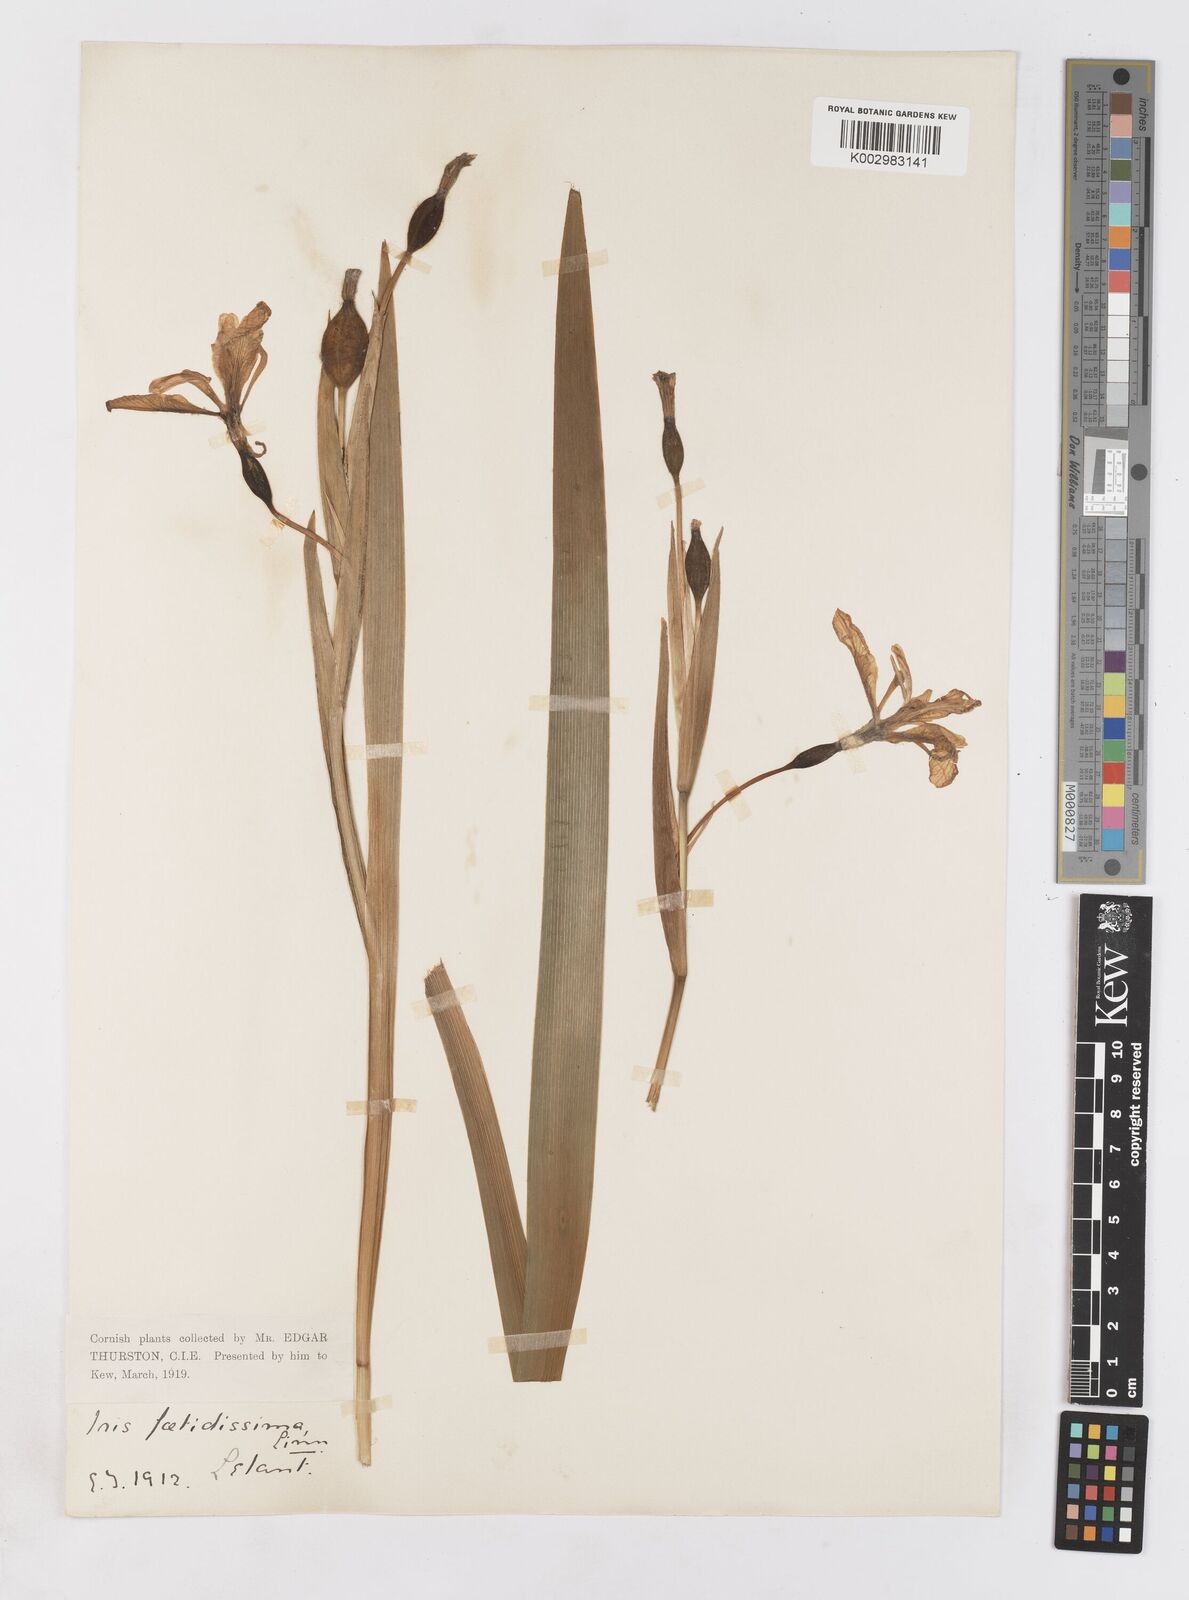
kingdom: Plantae
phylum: Tracheophyta
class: Liliopsida
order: Asparagales
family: Iridaceae
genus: Iris
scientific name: Iris foetidissima
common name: Stinking iris
